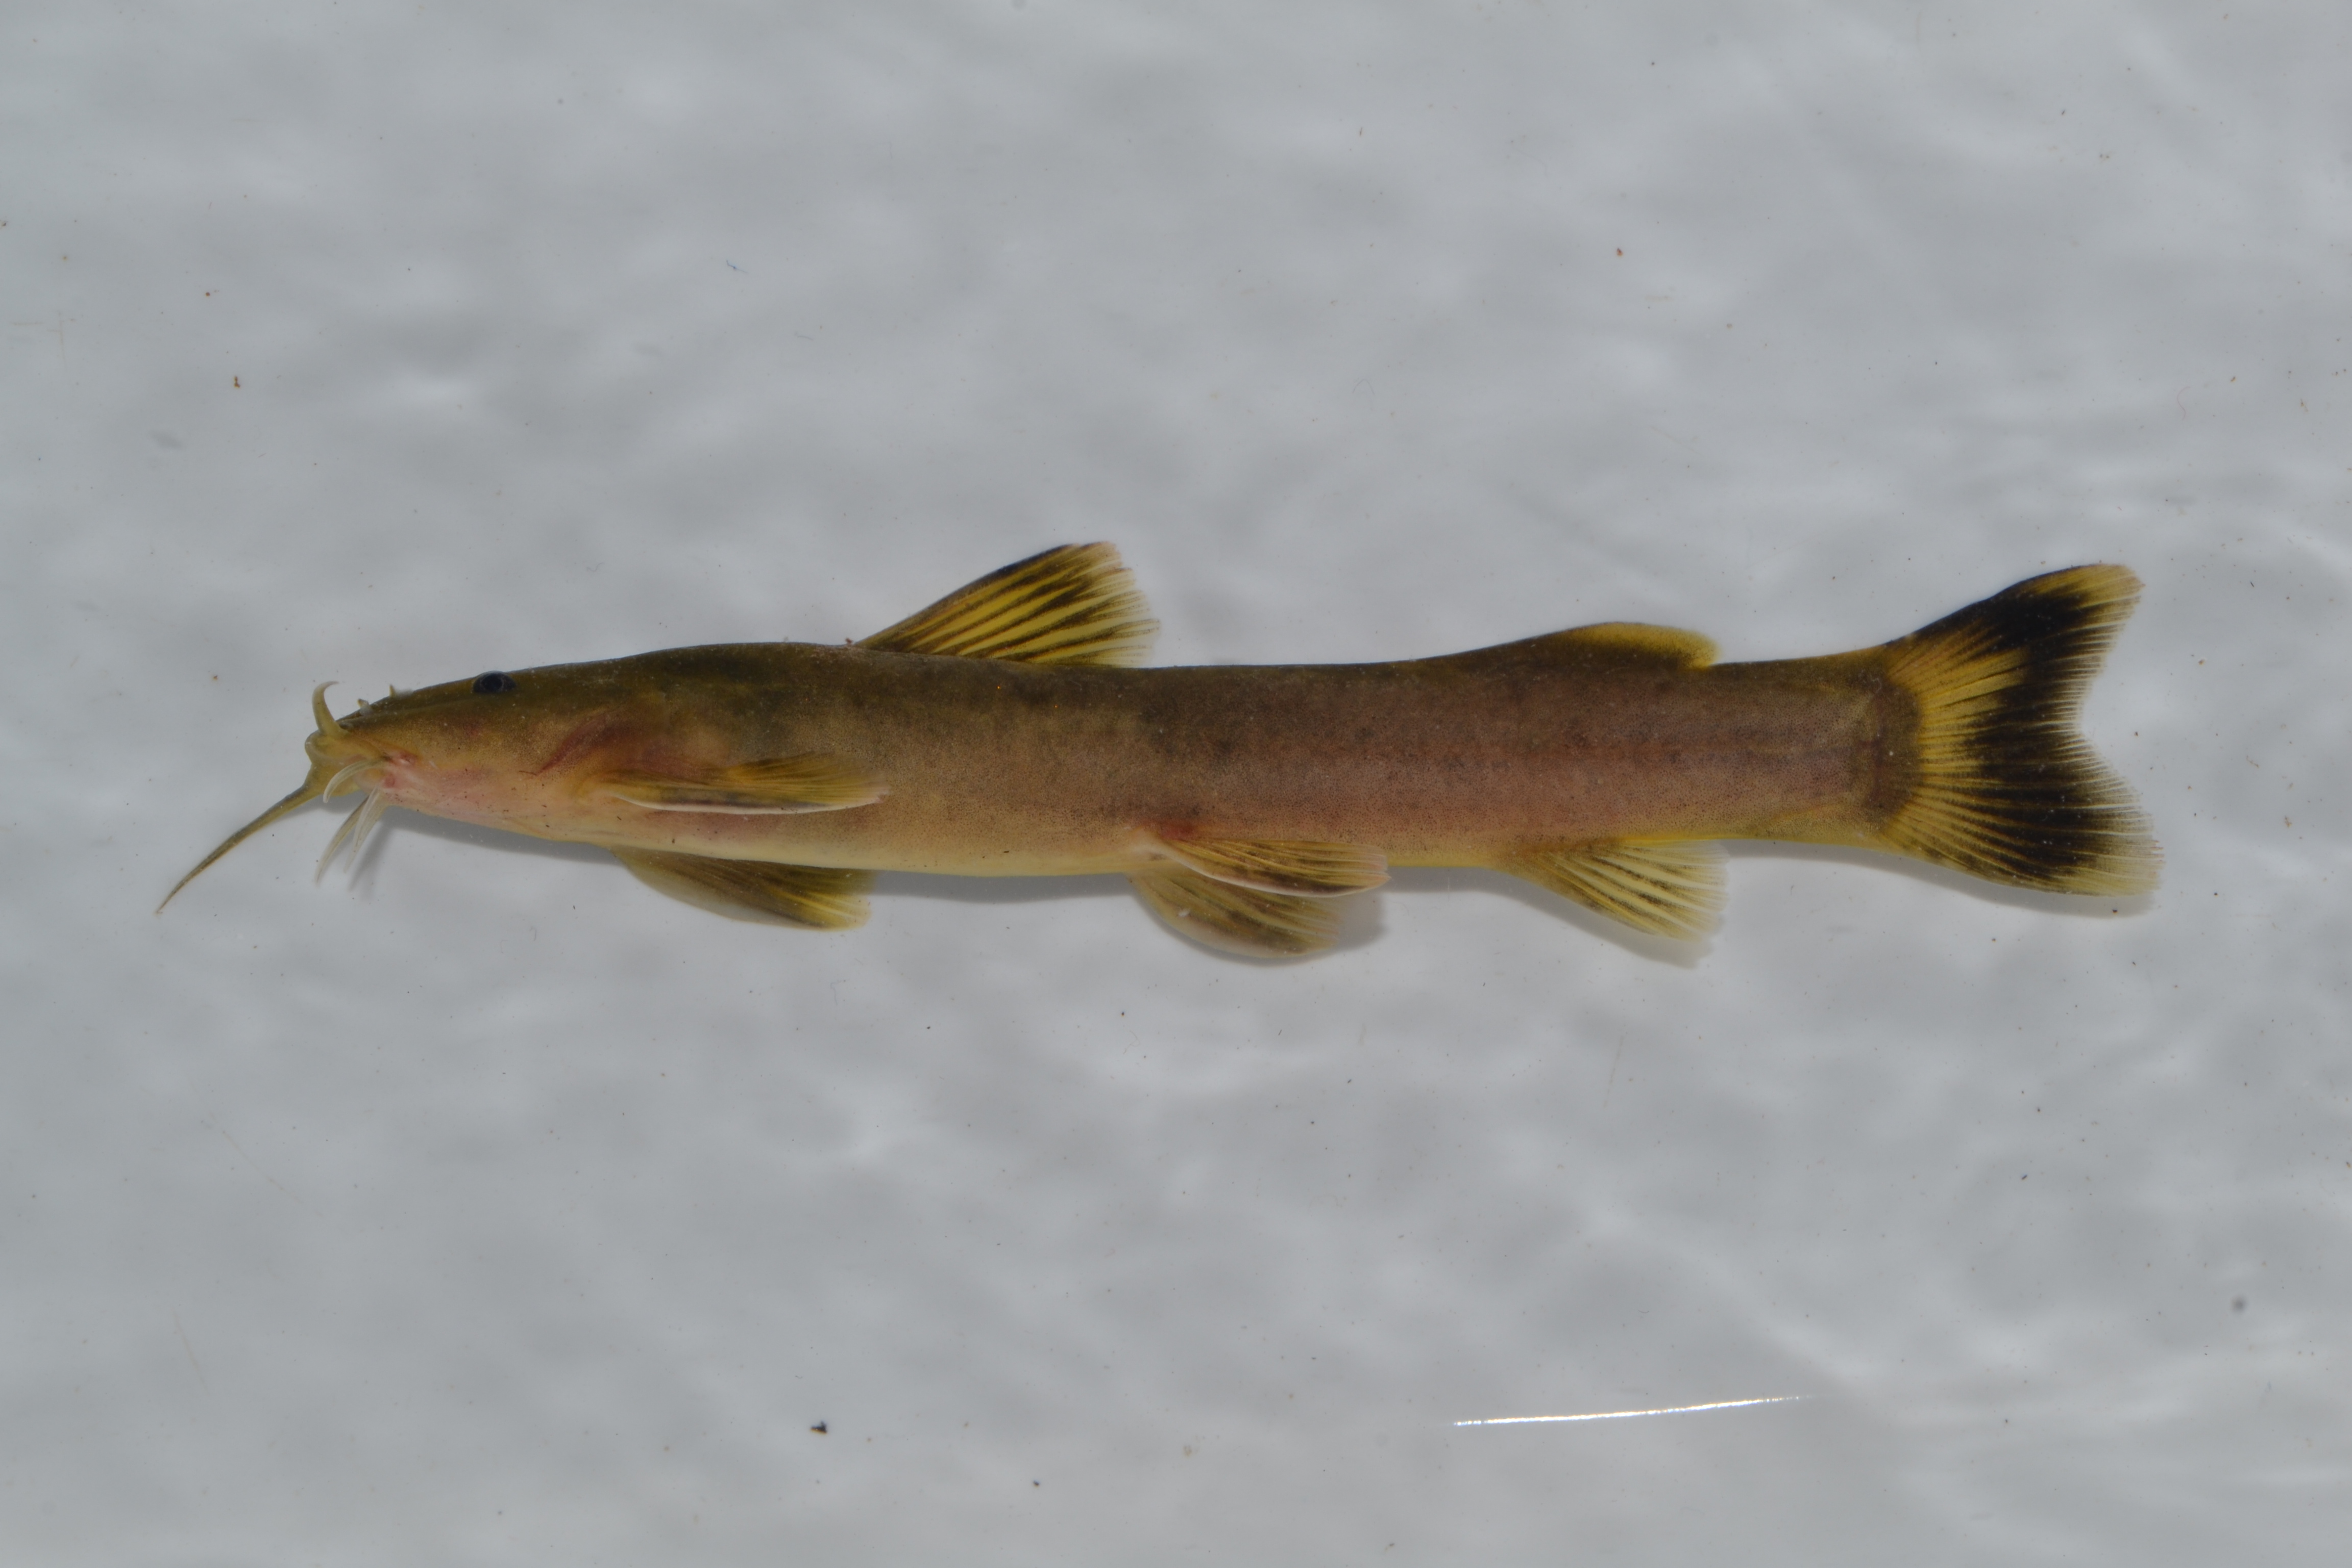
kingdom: Animalia
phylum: Chordata
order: Siluriformes
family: Amphiliidae
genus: Amphilius
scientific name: Amphilius uranoscopus
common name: Stargazer mountain catfish
